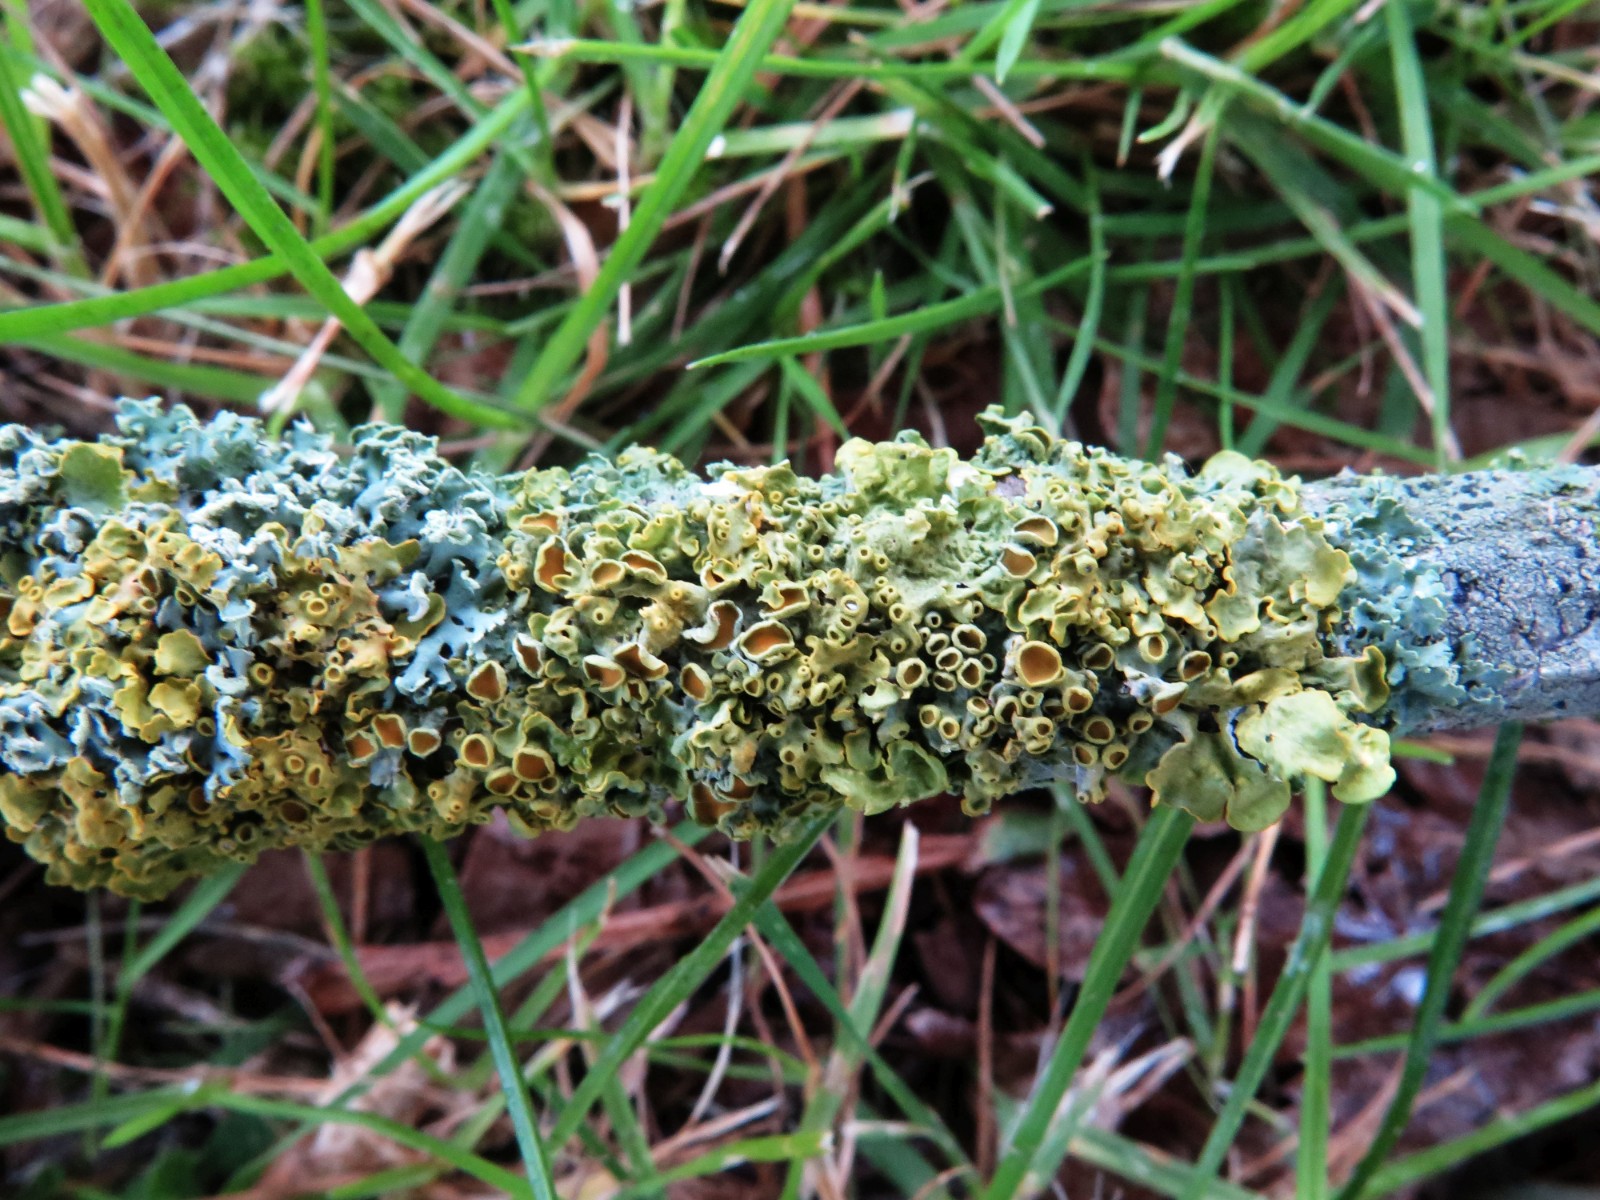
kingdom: Fungi
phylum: Ascomycota
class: Lecanoromycetes
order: Teloschistales
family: Teloschistaceae
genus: Xanthoria
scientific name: Xanthoria parietina
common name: almindelig væggelav
